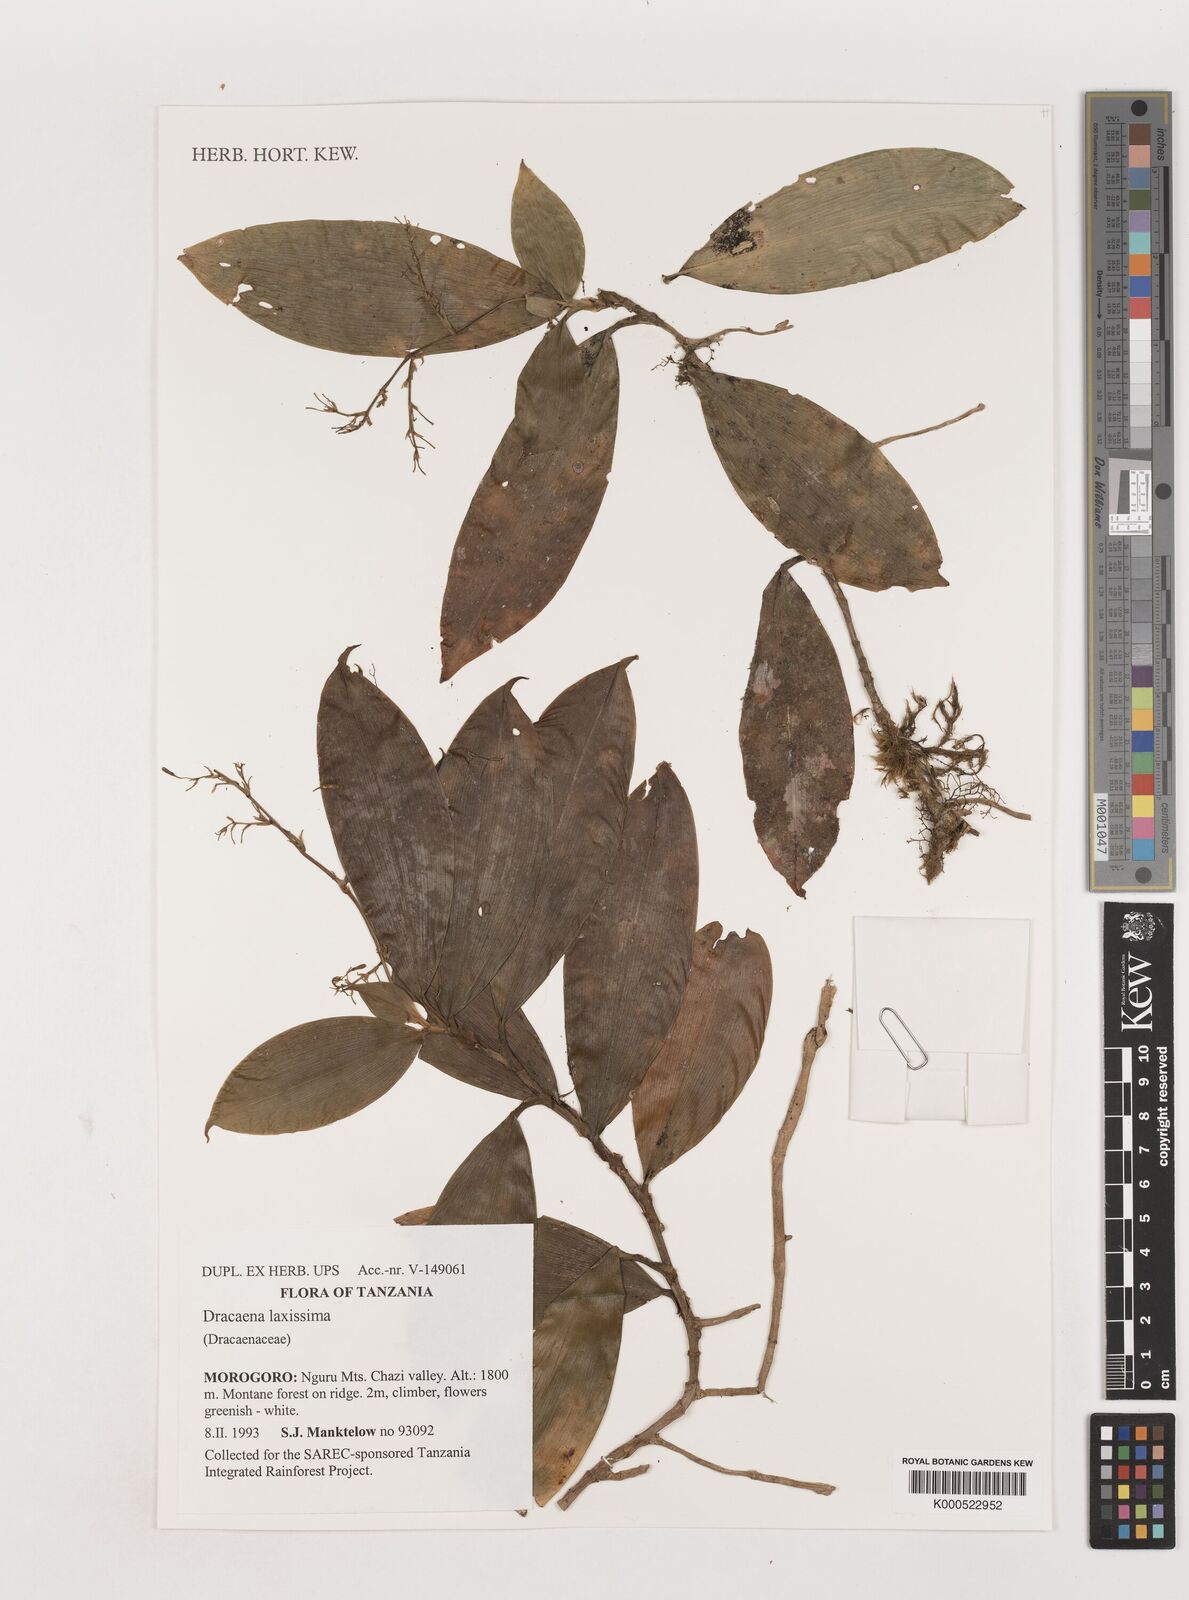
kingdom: Plantae
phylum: Tracheophyta
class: Liliopsida
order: Asparagales
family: Asparagaceae
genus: Dracaena
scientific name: Dracaena laxissima
